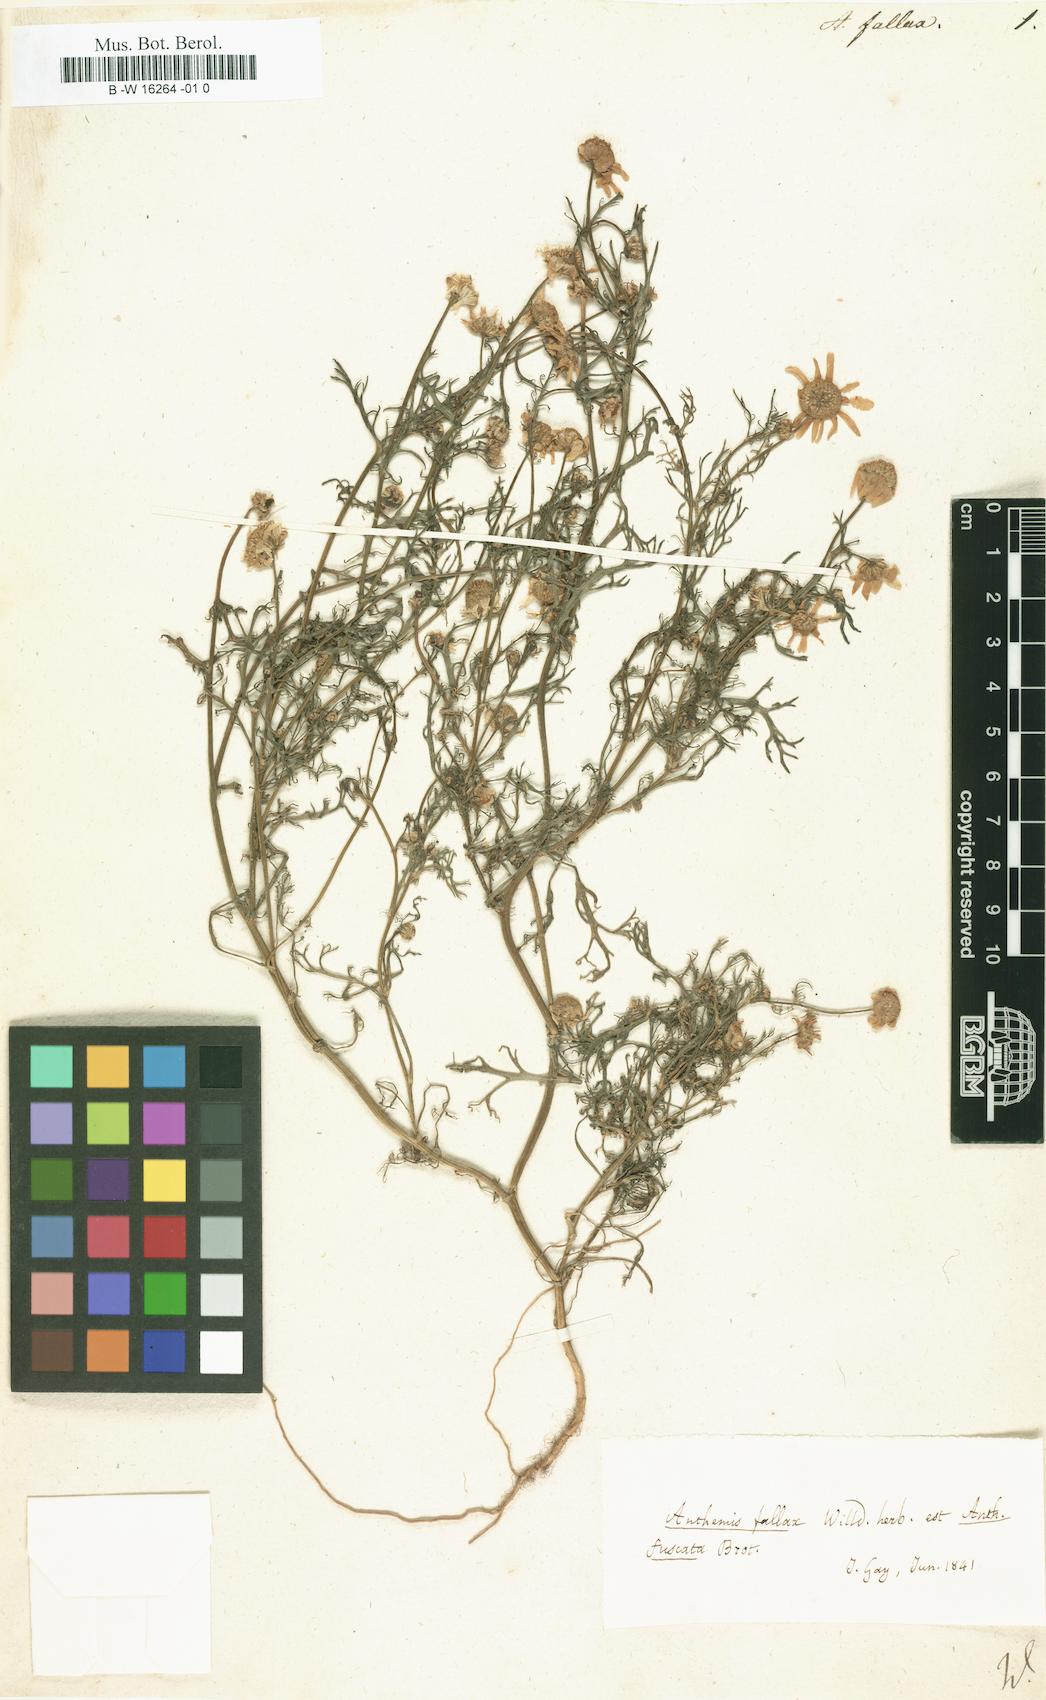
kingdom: Plantae
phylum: Tracheophyta
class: Magnoliopsida
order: Asterales
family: Asteraceae
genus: Chamaemelum
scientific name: Chamaemelum fuscatum
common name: Chamomile
